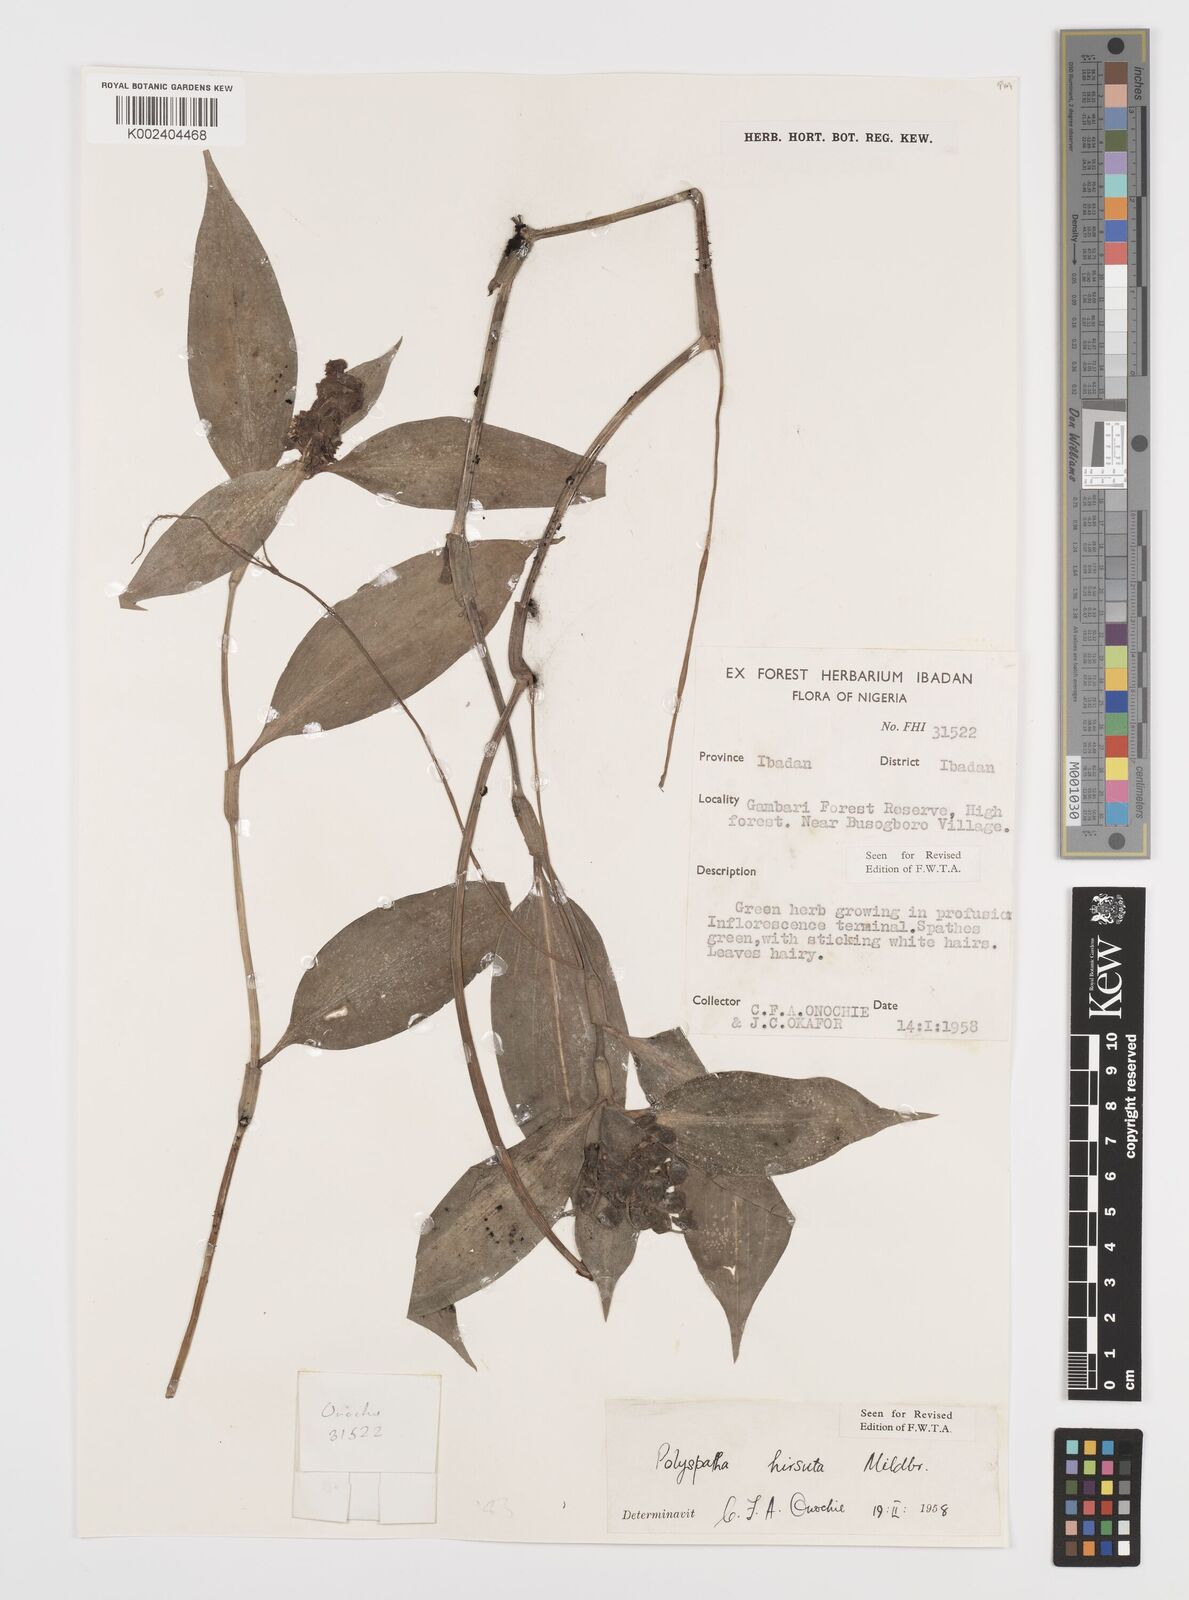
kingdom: Plantae
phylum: Tracheophyta
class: Liliopsida
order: Commelinales
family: Commelinaceae
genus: Polyspatha
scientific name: Polyspatha hirsuta
